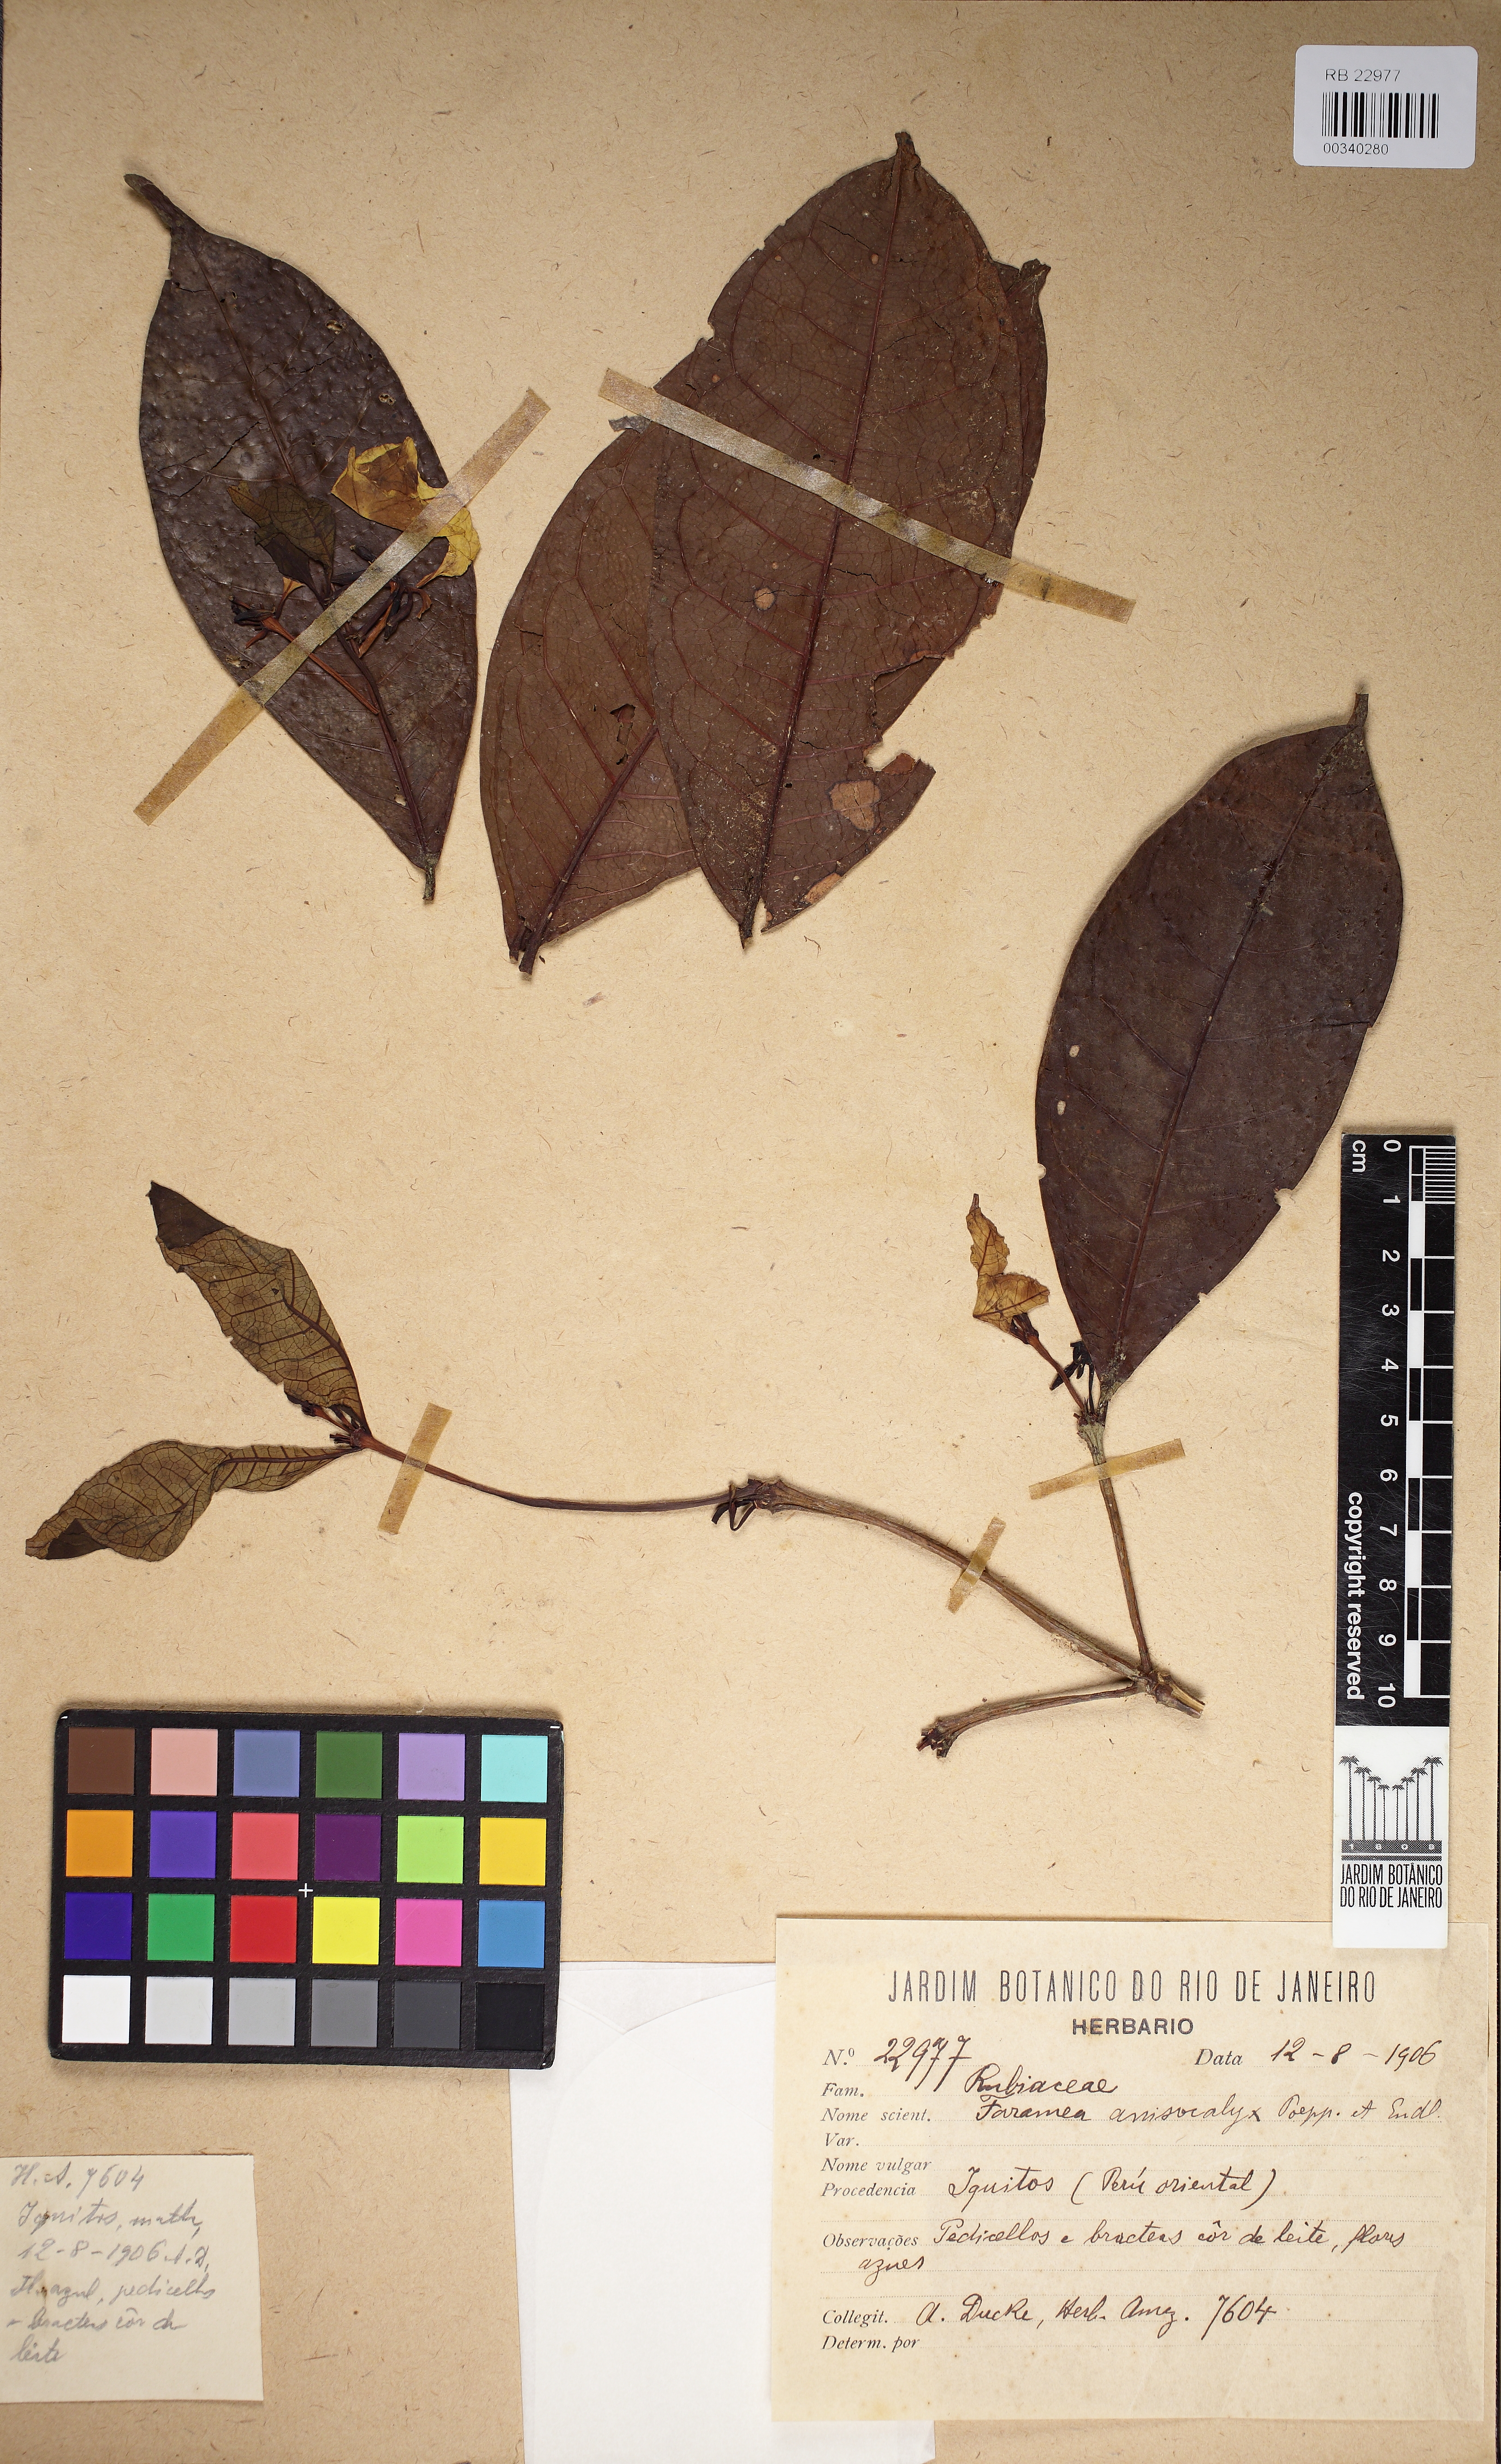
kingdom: Plantae
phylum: Tracheophyta
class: Magnoliopsida
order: Gentianales
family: Rubiaceae
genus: Faramea
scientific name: Faramea anisocalyx
